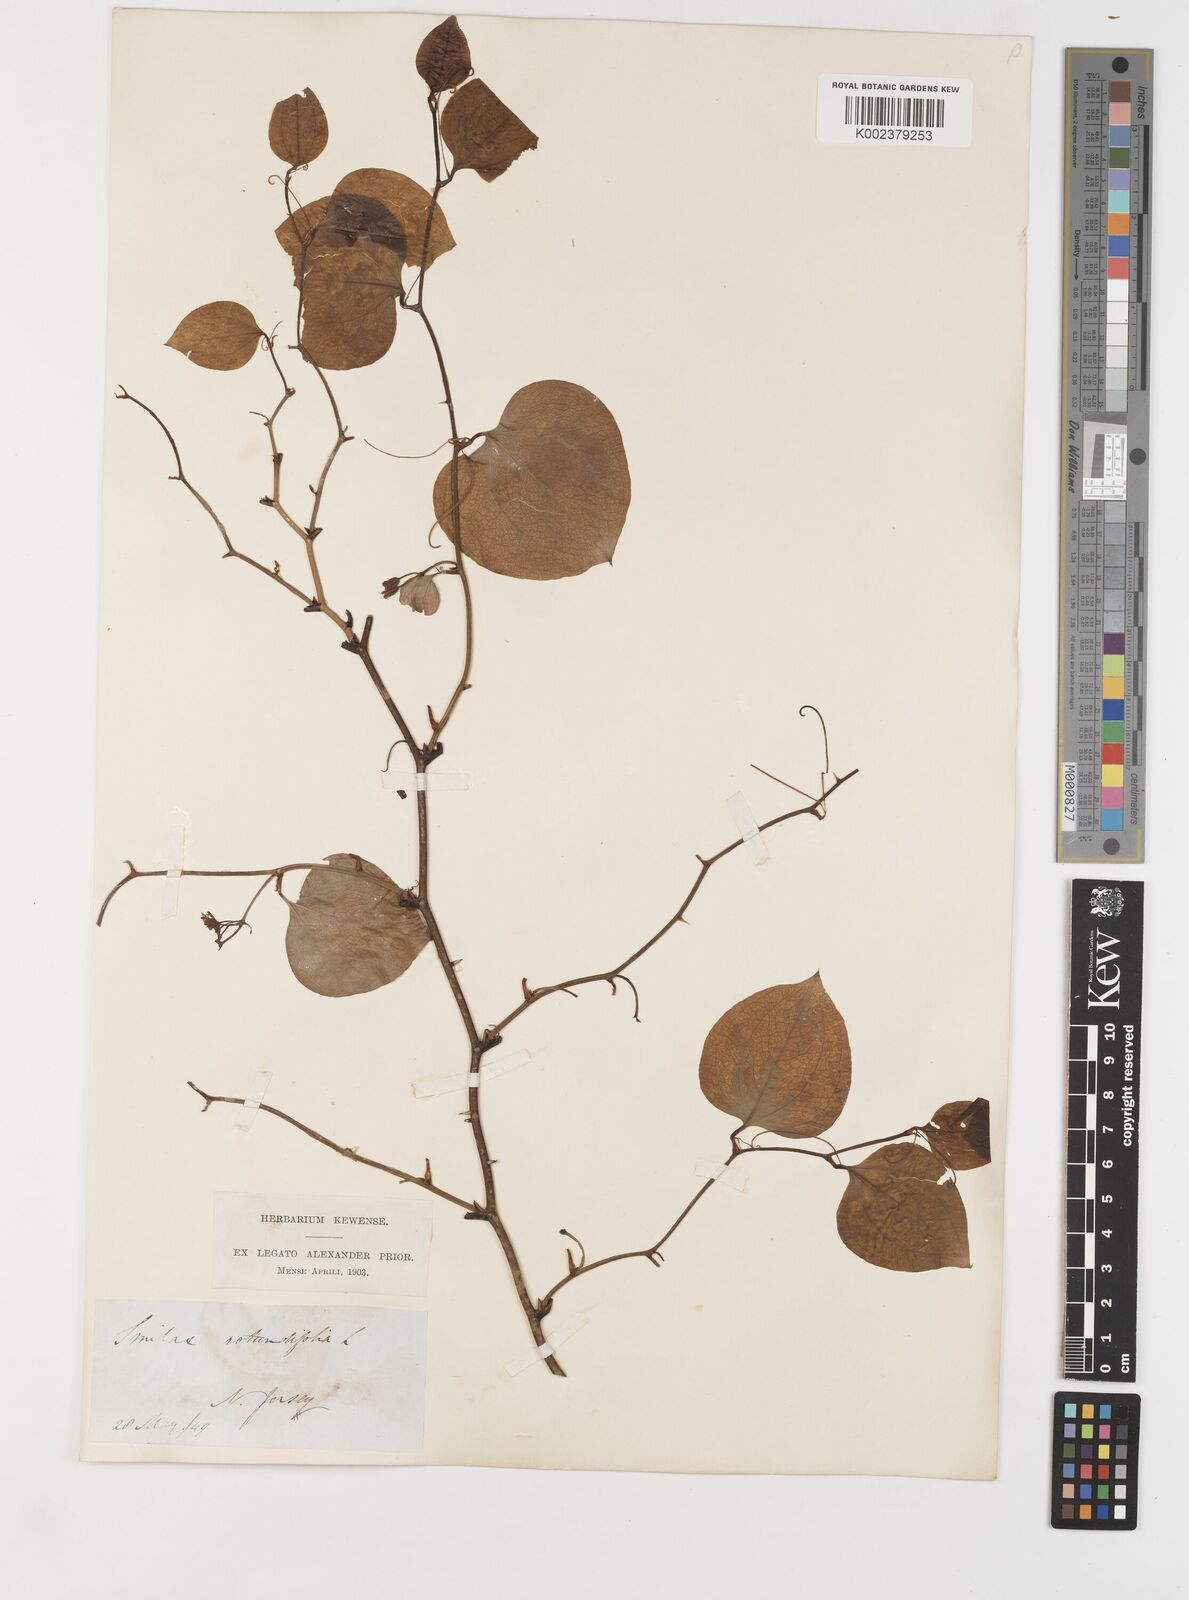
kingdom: Plantae
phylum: Tracheophyta
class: Liliopsida
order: Liliales
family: Smilacaceae
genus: Smilax
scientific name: Smilax rotundifolia
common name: Bullbriar
